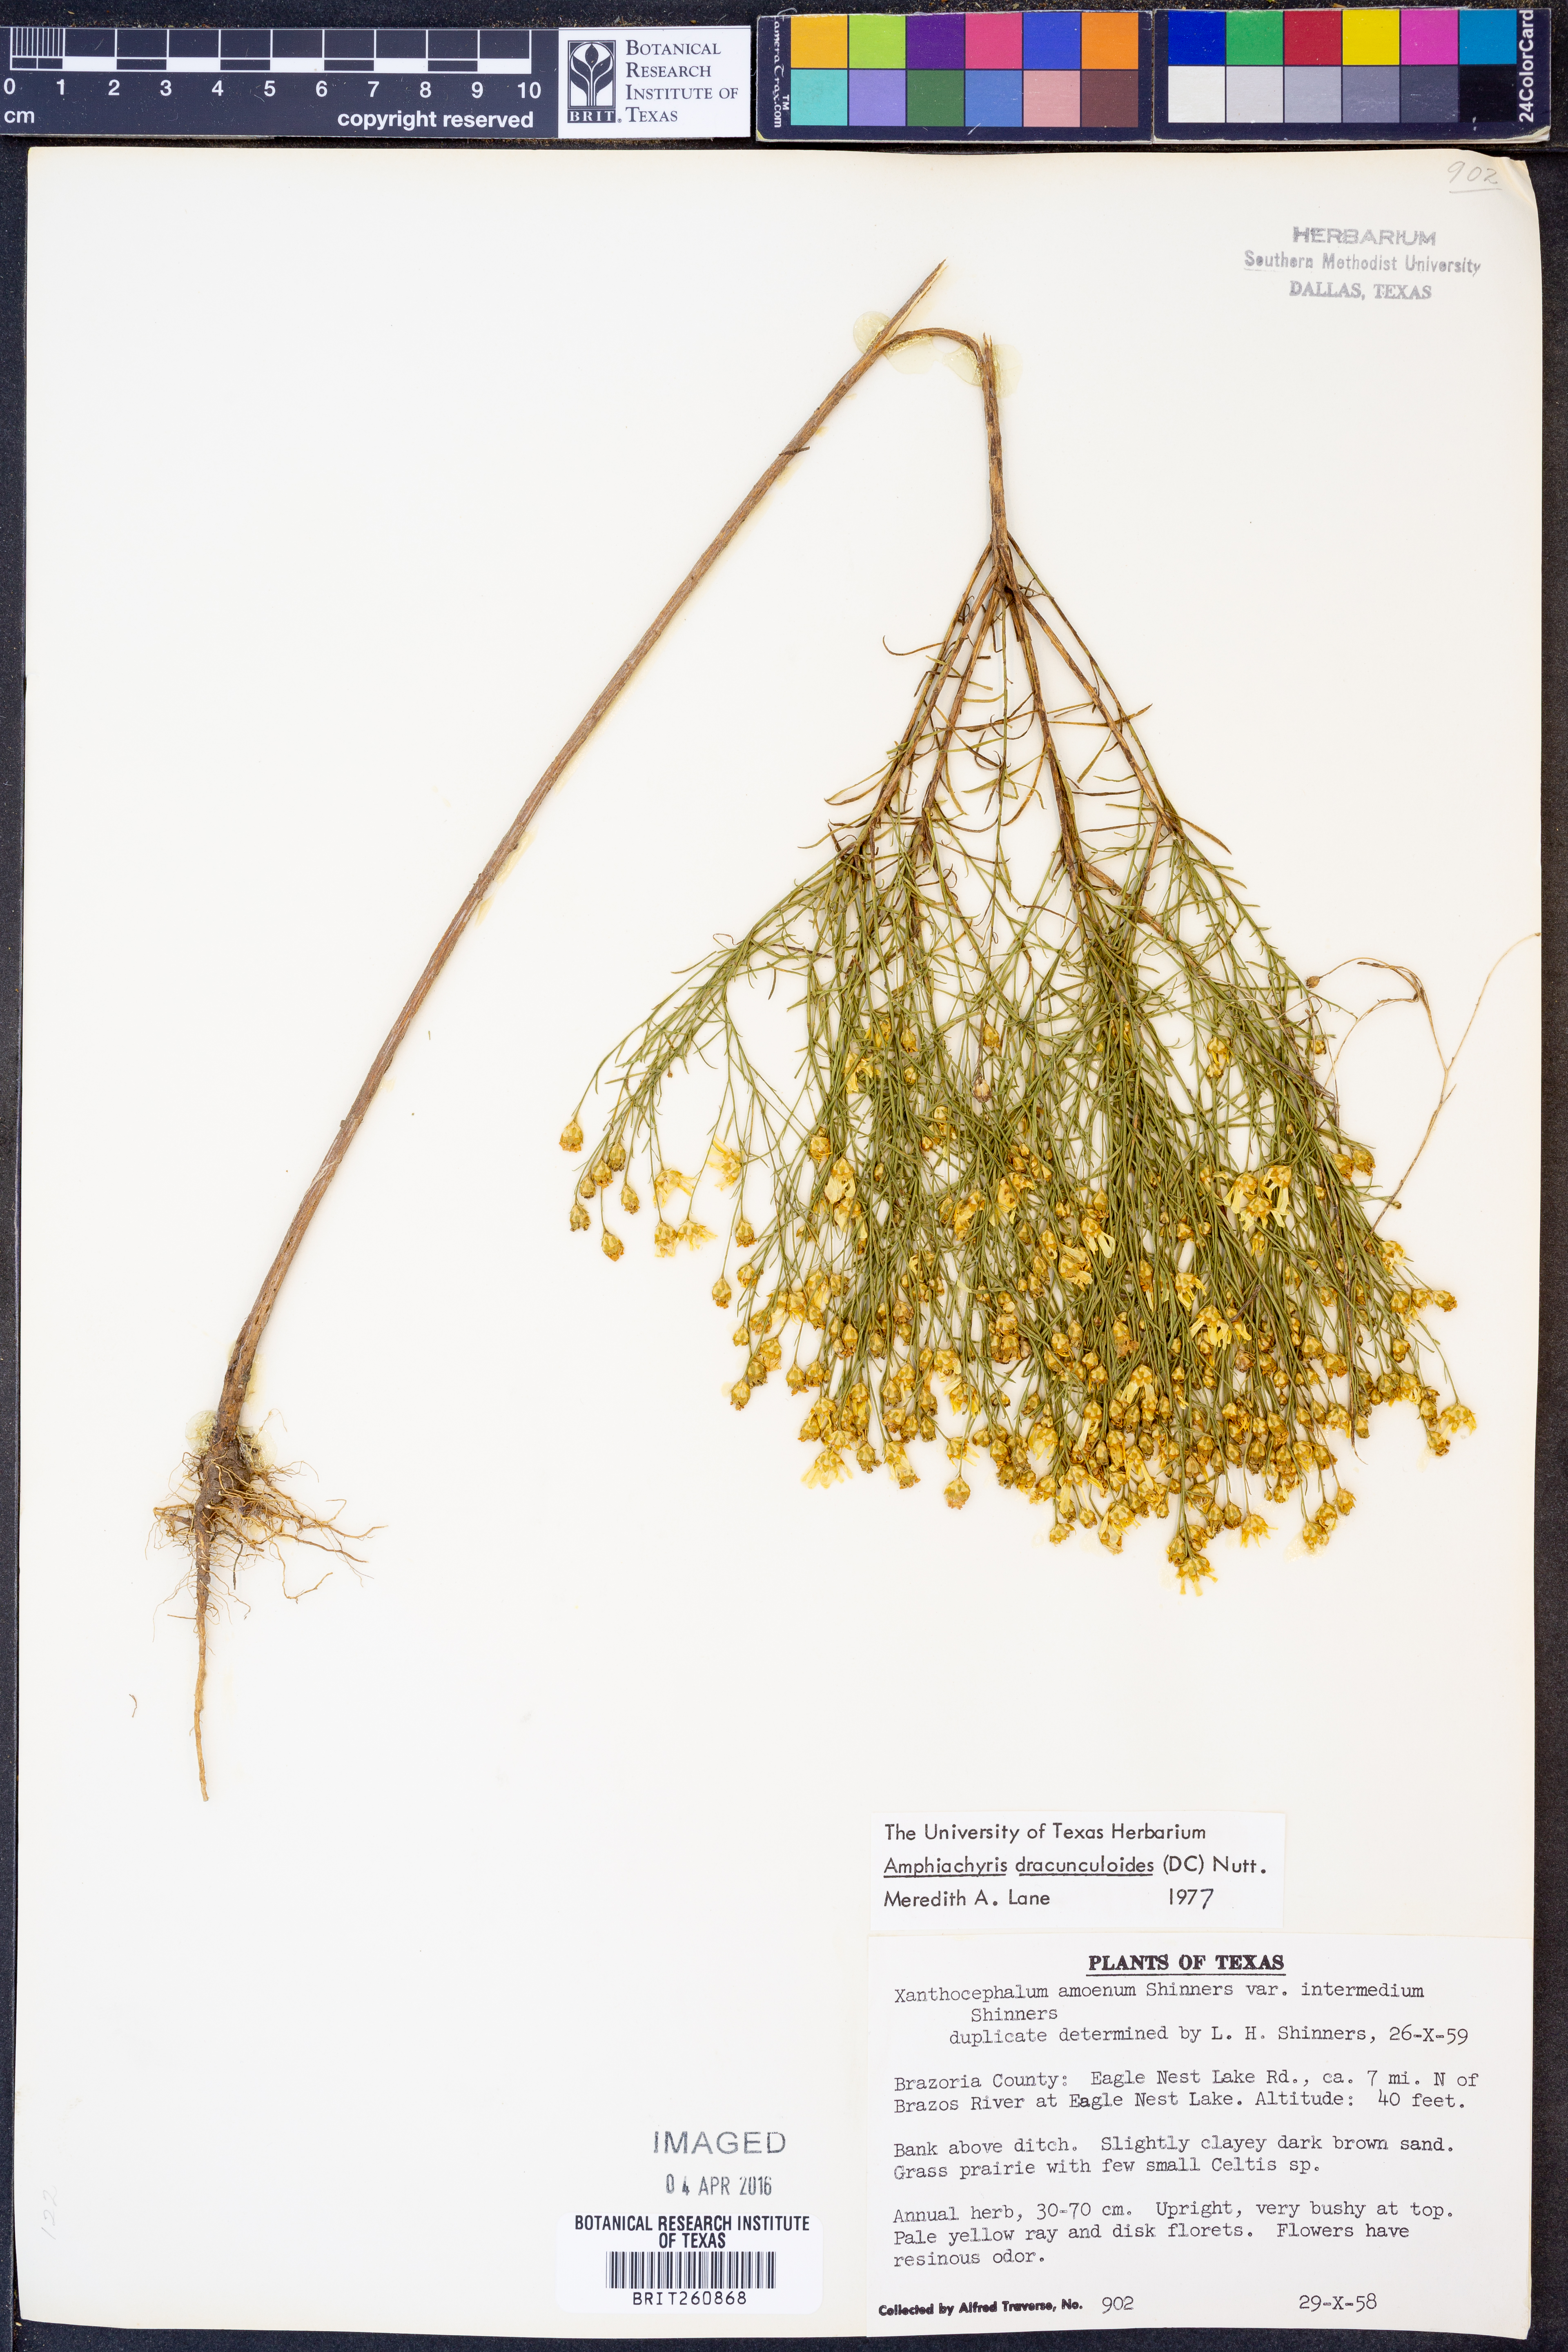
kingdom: Plantae
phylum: Tracheophyta
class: Magnoliopsida
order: Asterales
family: Asteraceae
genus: Amphiachyris
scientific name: Amphiachyris dracunculoides
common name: Broomweed
